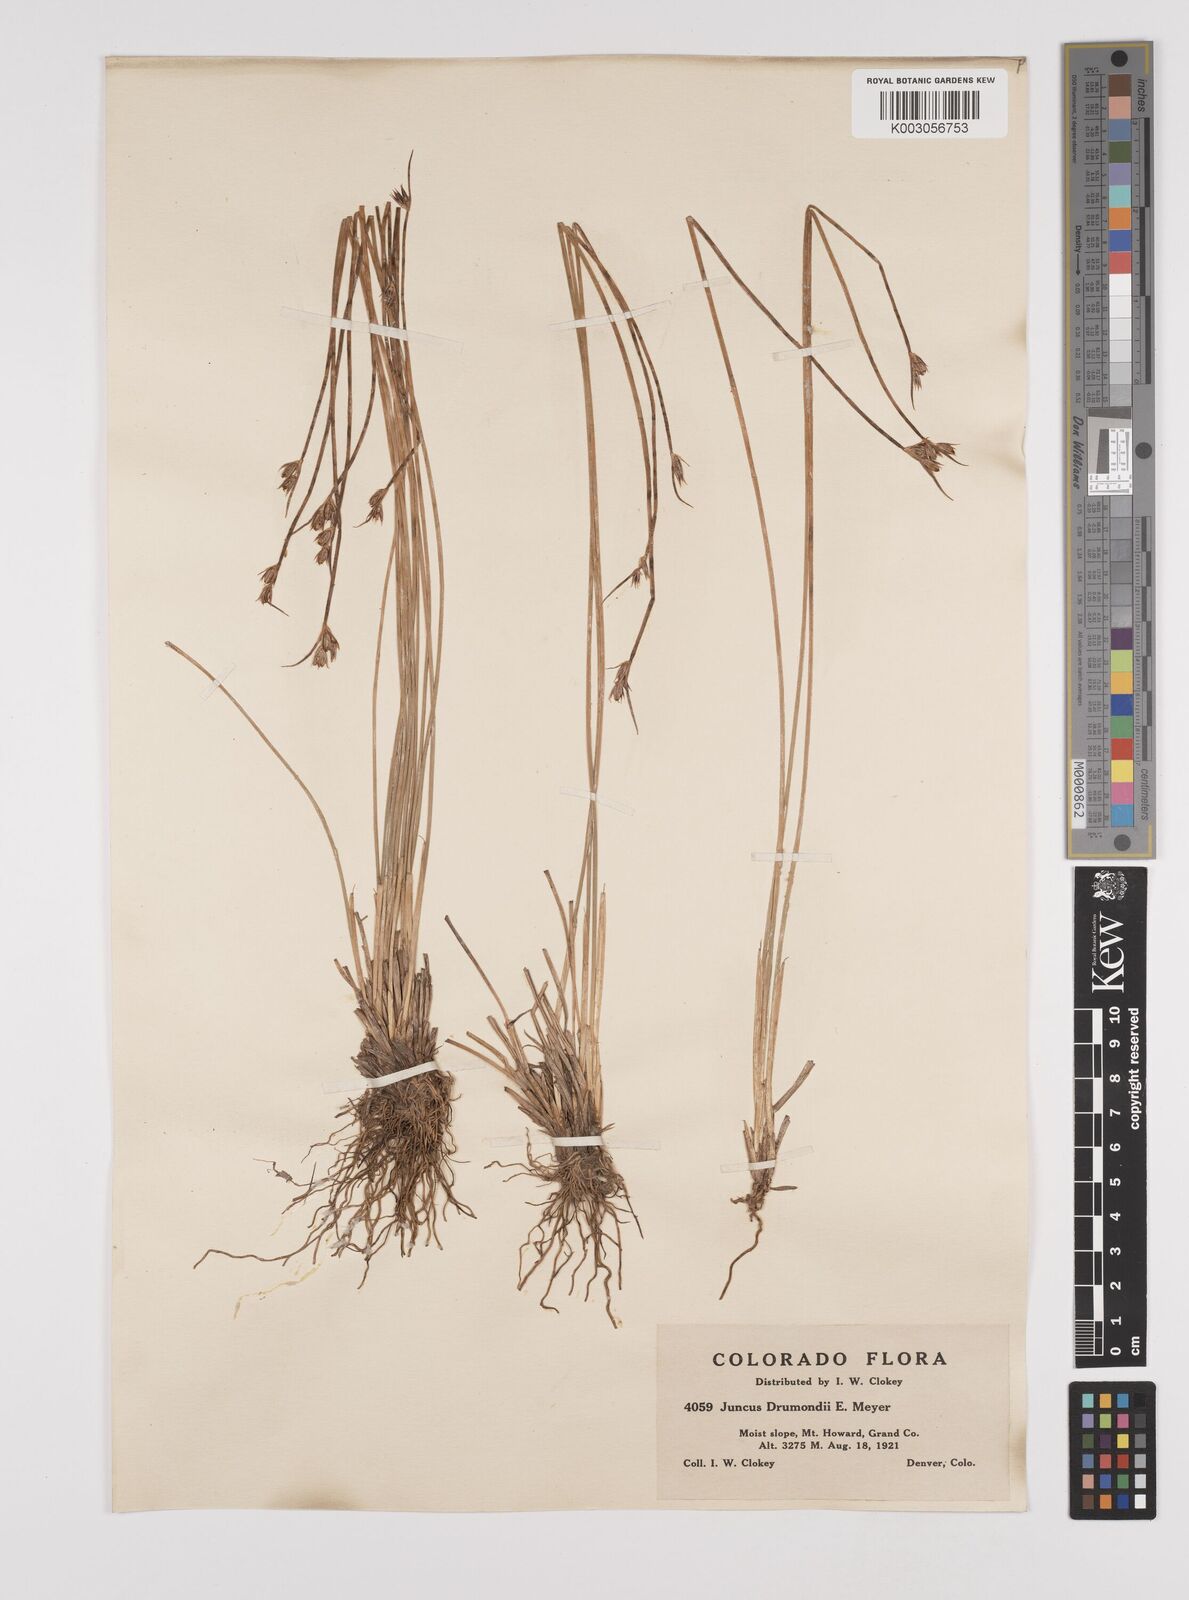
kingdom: Plantae
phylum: Tracheophyta
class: Liliopsida
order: Poales
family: Juncaceae
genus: Juncus
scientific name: Juncus drummondii
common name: Drummond's rush
